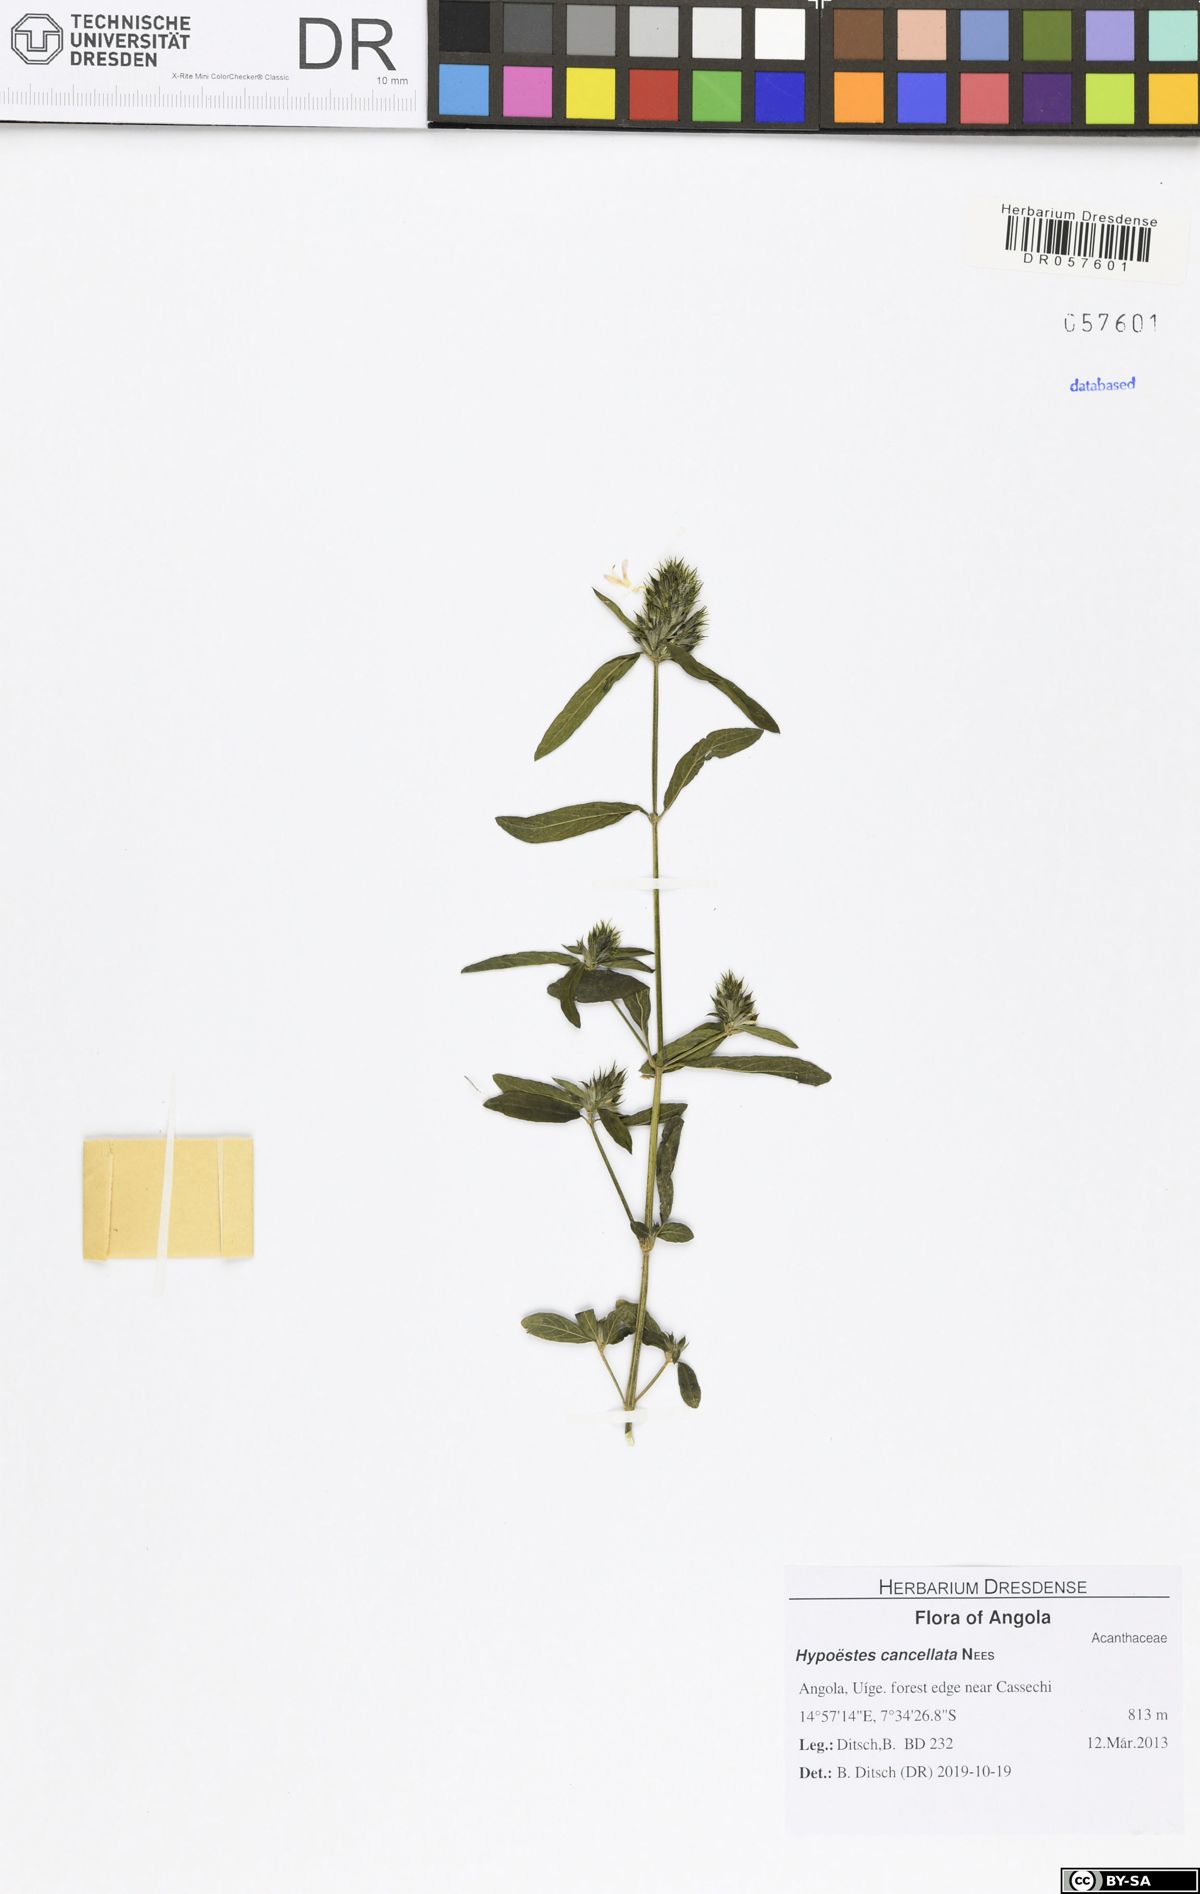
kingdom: Plantae
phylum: Tracheophyta
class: Magnoliopsida
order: Lamiales
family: Acanthaceae
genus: Hypoestes
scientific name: Hypoestes cancellata
